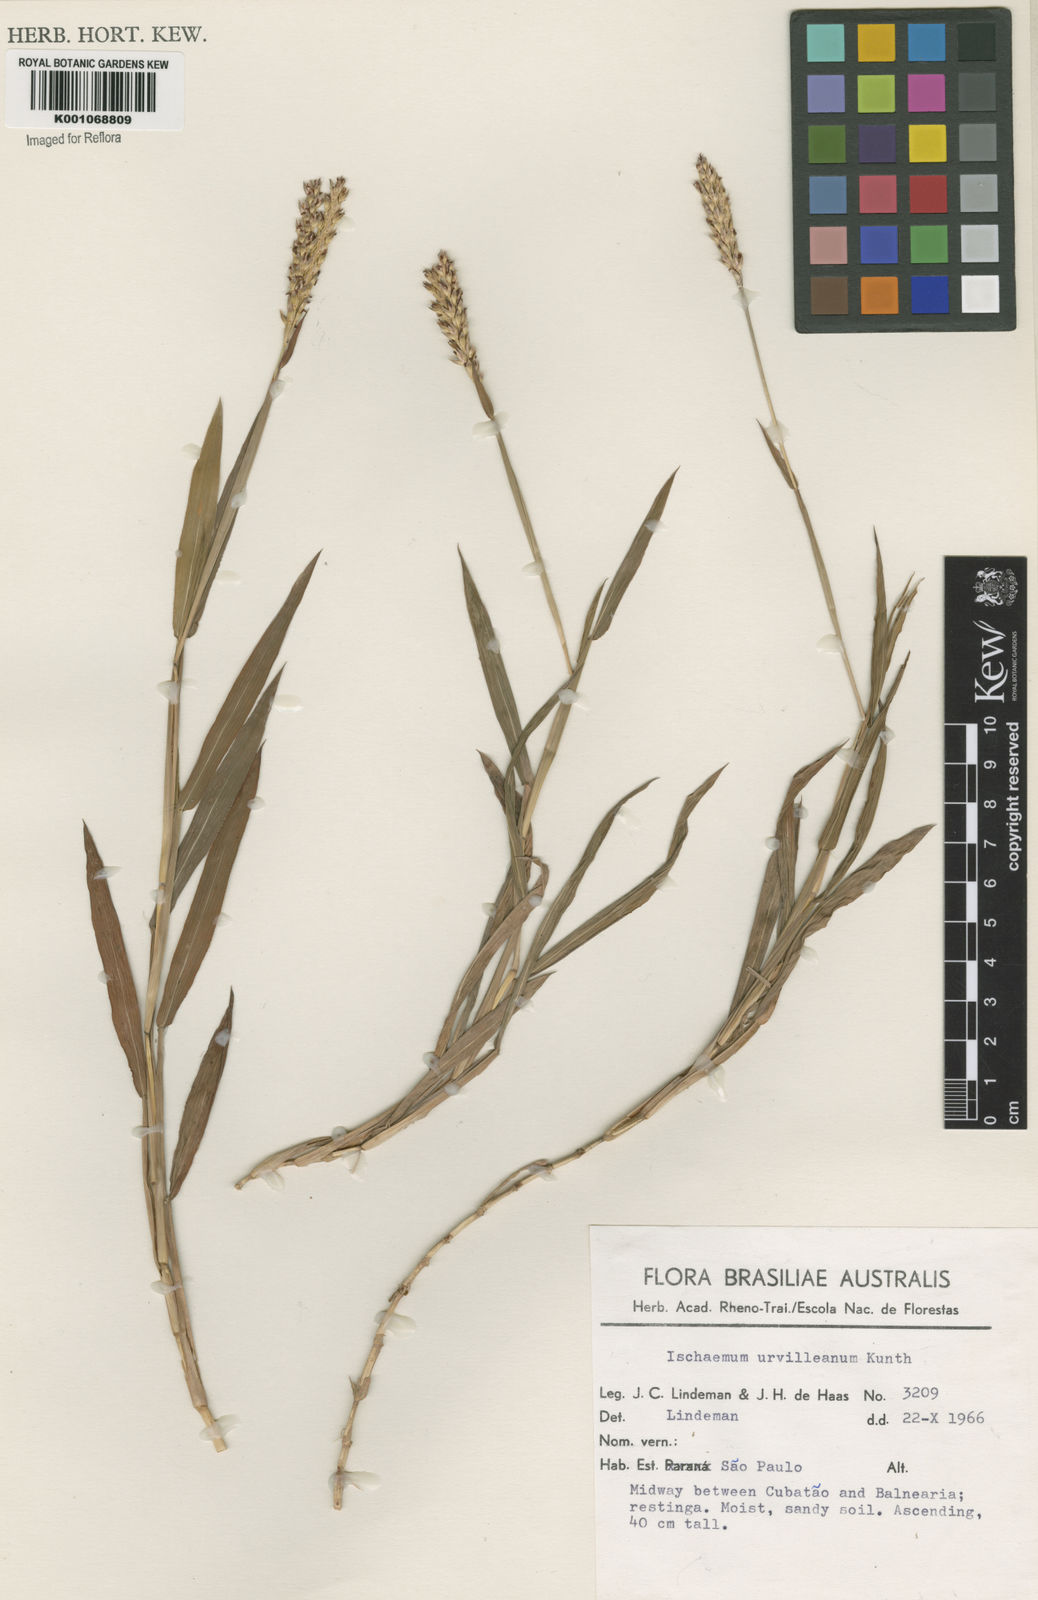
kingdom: Plantae
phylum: Tracheophyta
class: Liliopsida
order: Poales
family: Poaceae
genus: Ischaemum
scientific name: Ischaemum latifolium
